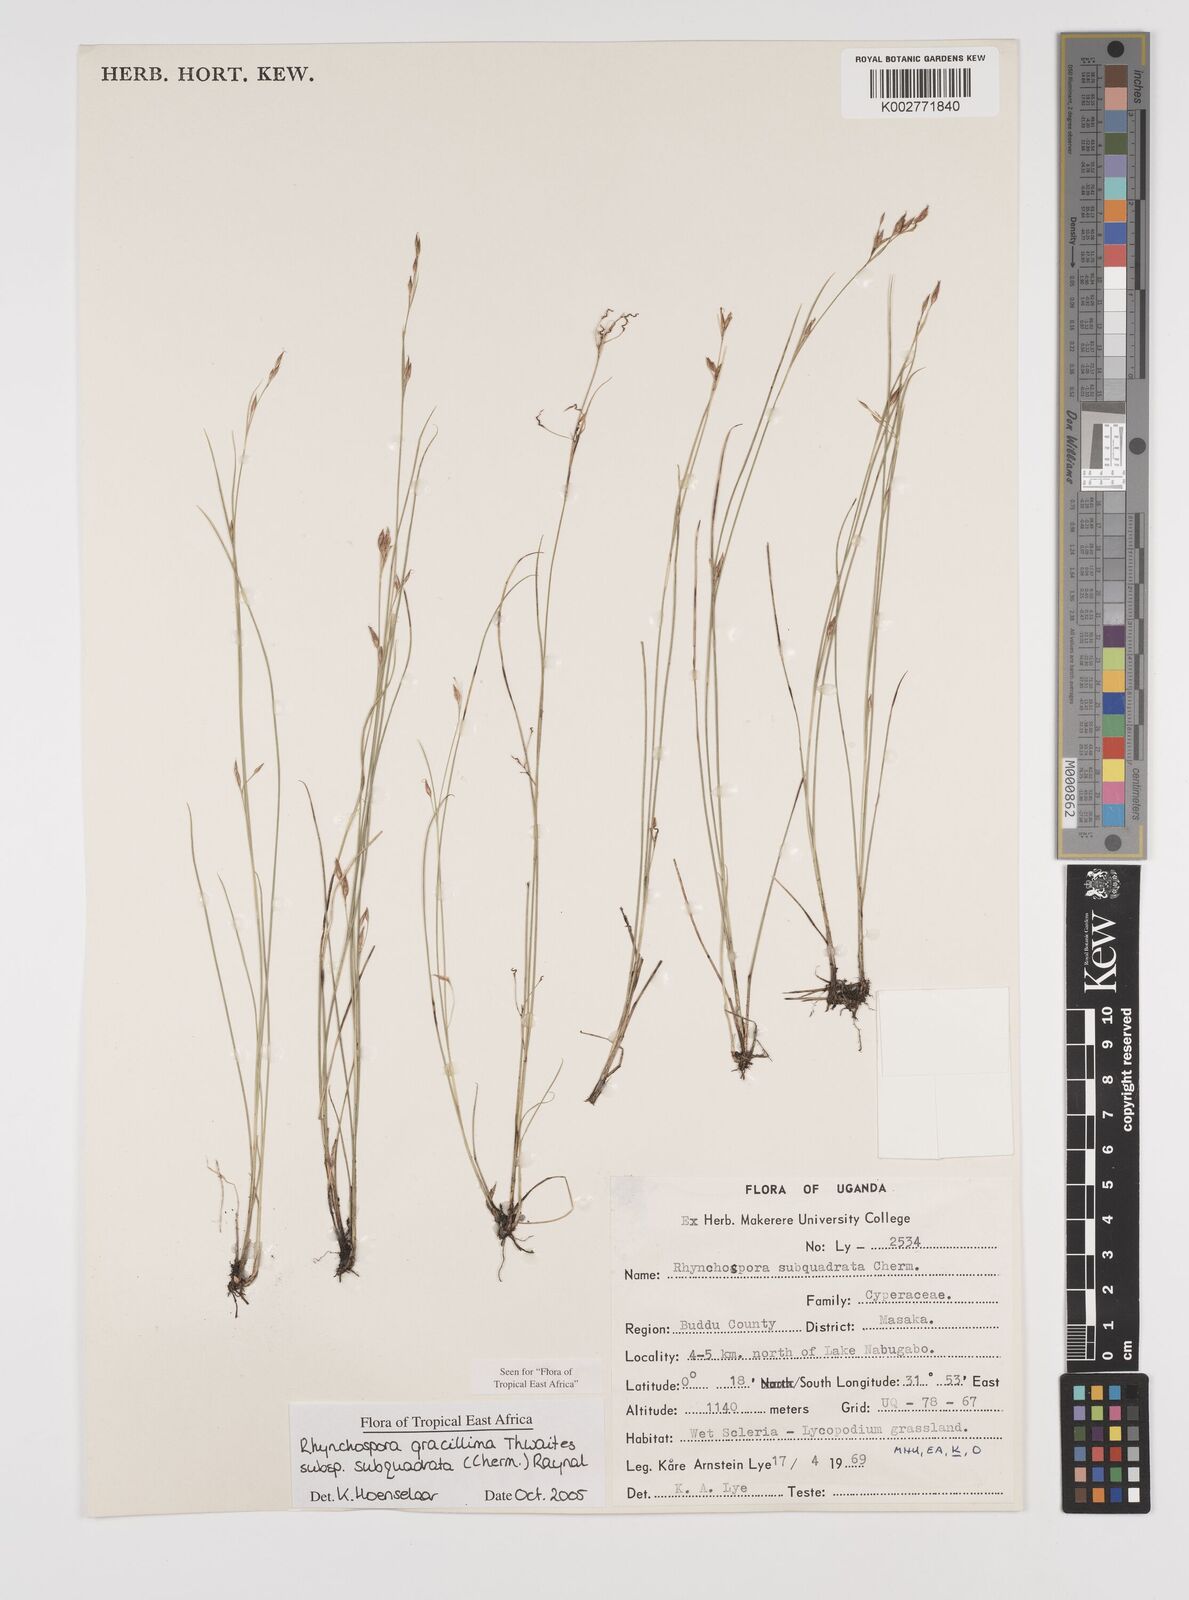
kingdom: Plantae
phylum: Tracheophyta
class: Liliopsida
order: Poales
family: Cyperaceae
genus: Rhynchospora
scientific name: Rhynchospora gracillima
